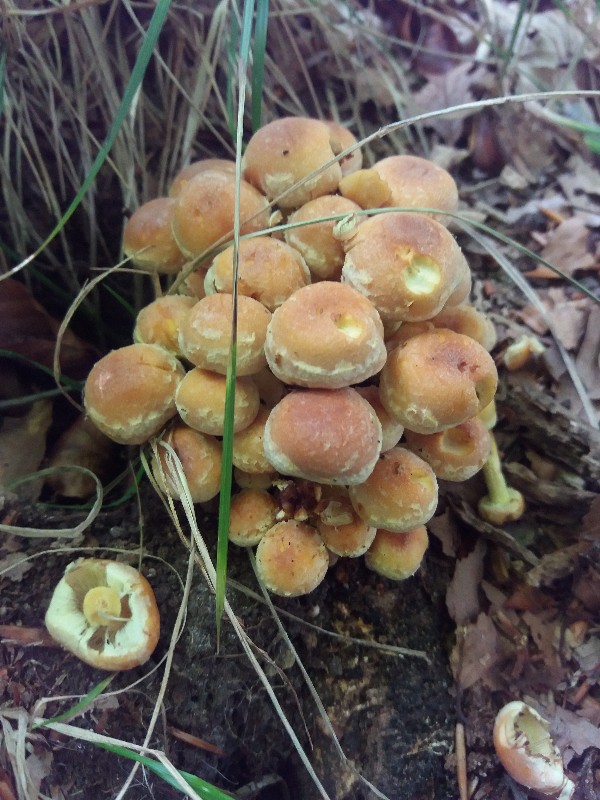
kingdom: Fungi
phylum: Basidiomycota
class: Agaricomycetes
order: Agaricales
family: Strophariaceae
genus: Hypholoma
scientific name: Hypholoma fasciculare
